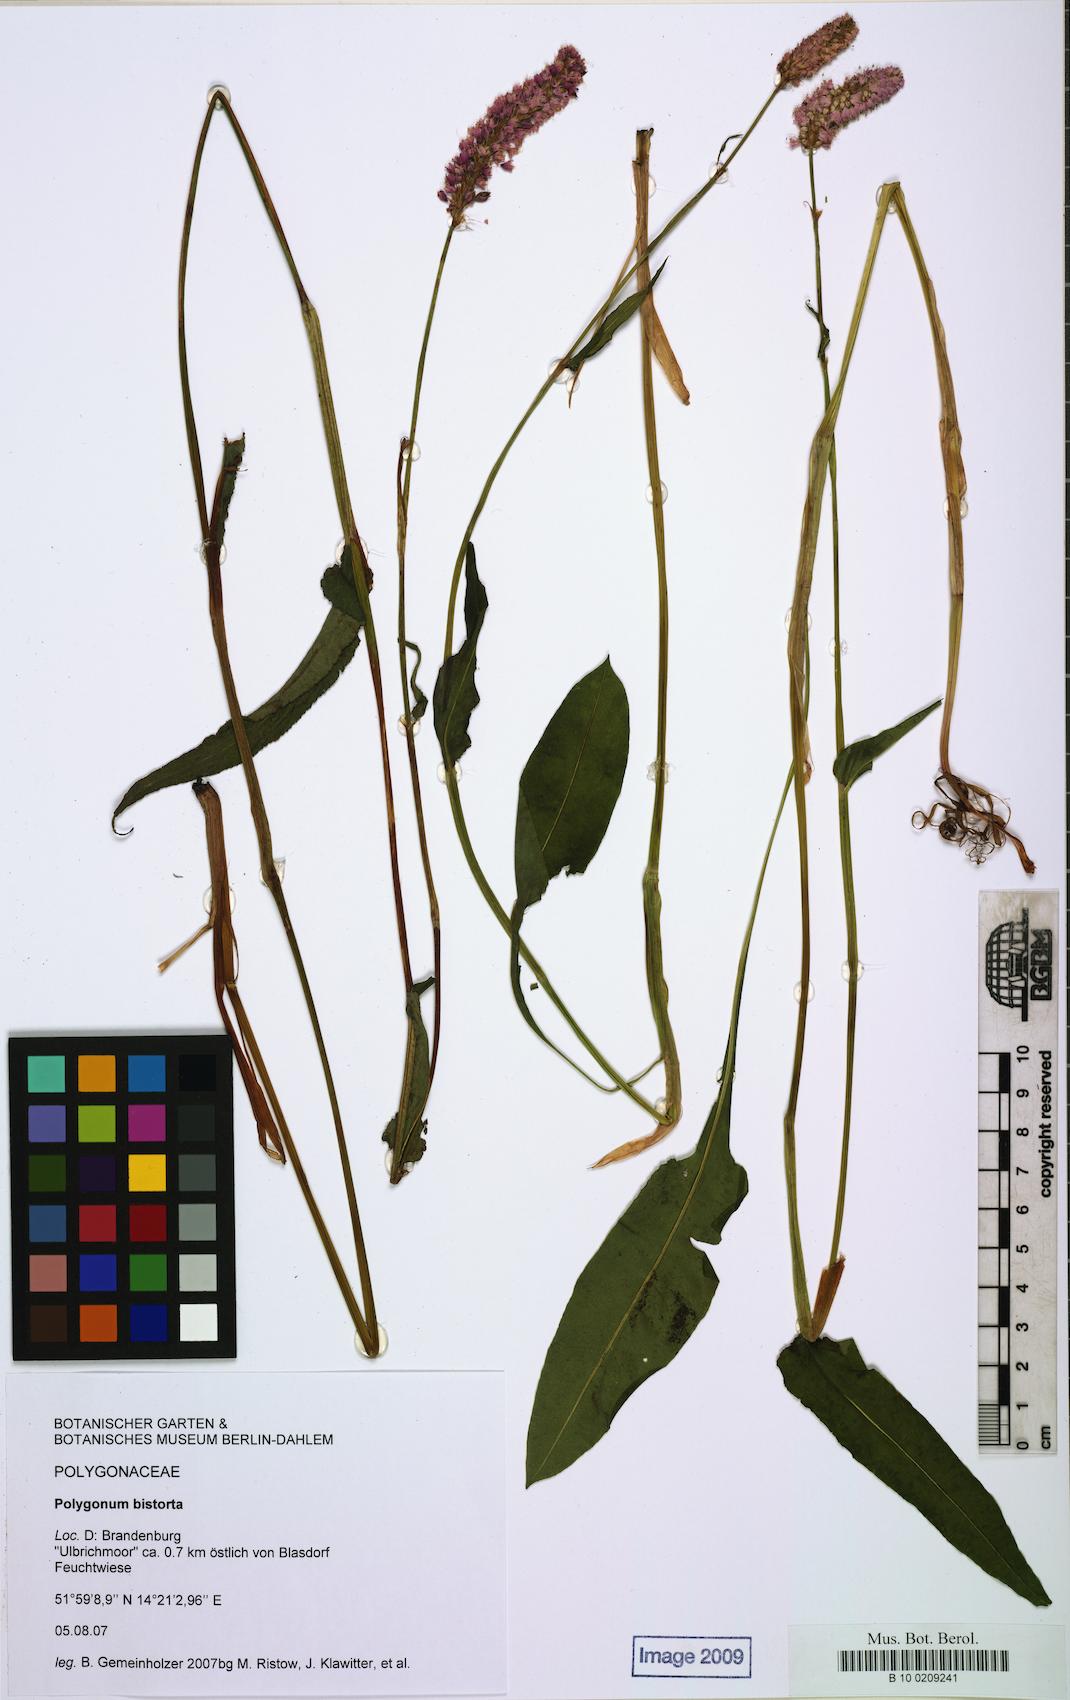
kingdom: Plantae
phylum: Tracheophyta
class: Magnoliopsida
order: Caryophyllales
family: Polygonaceae
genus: Bistorta
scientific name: Bistorta officinalis
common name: Common bistort
